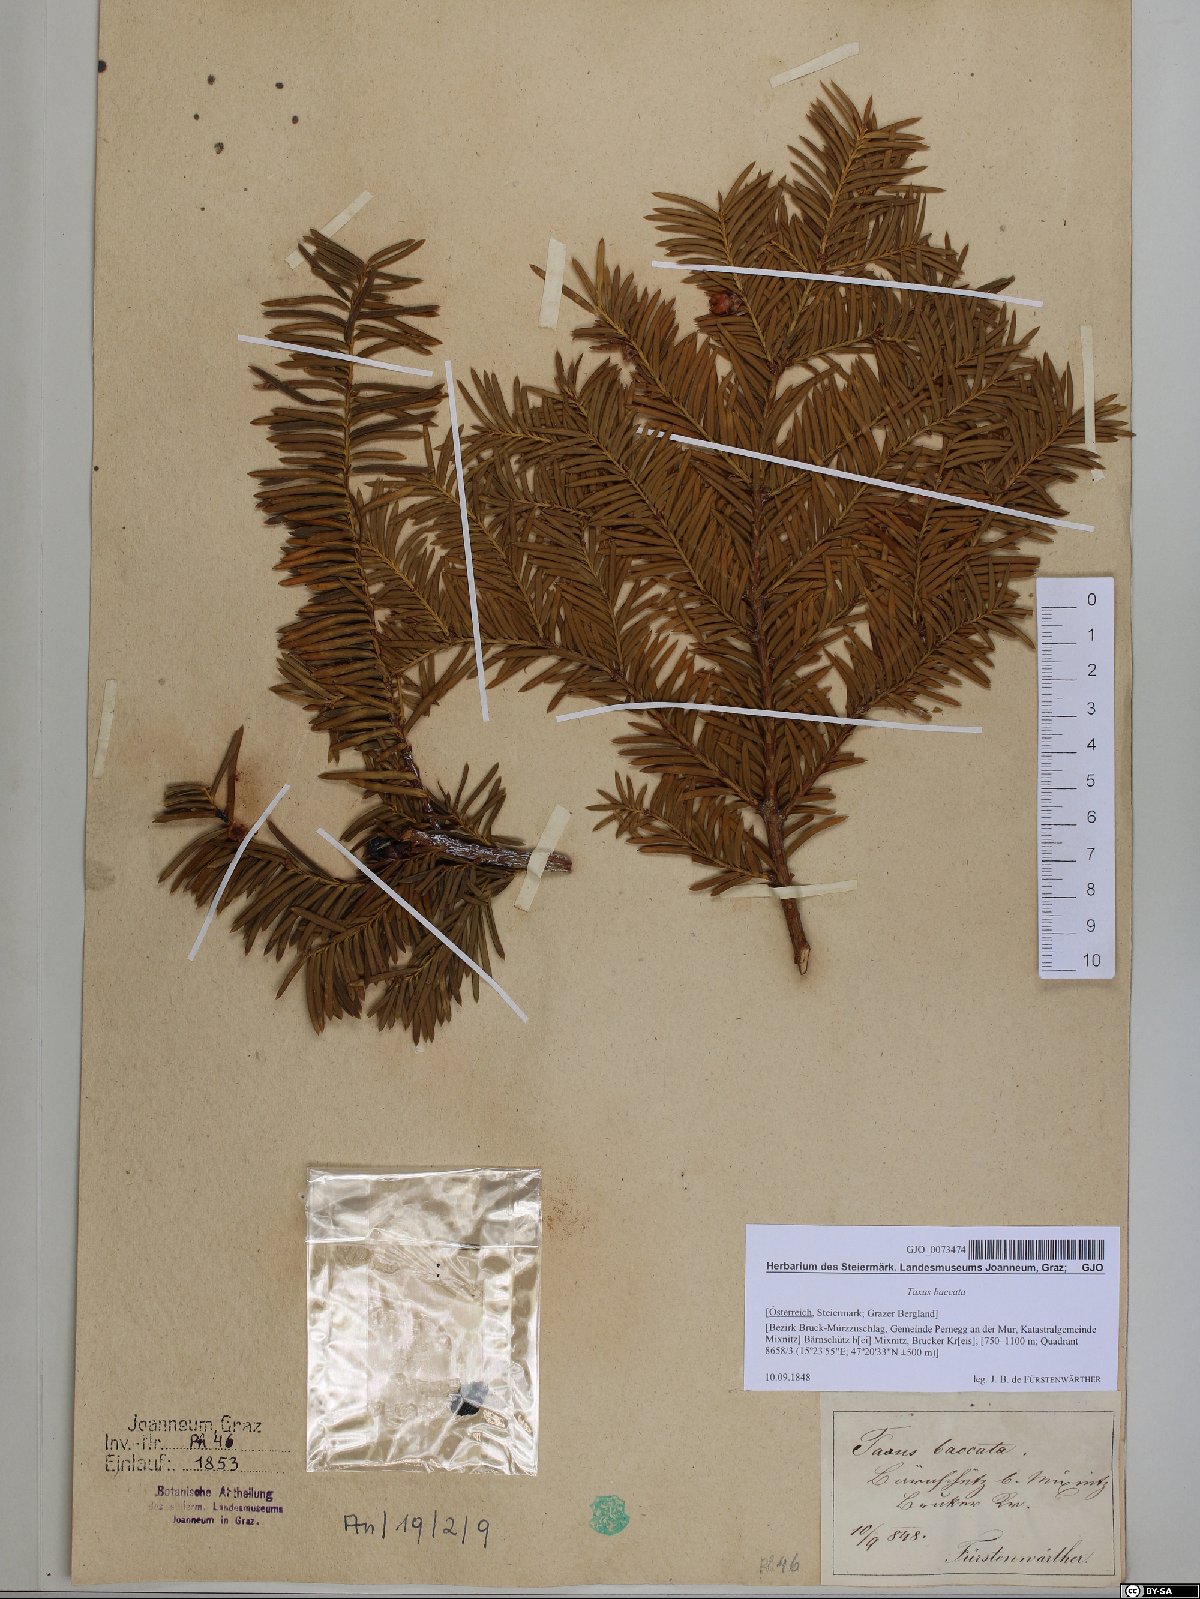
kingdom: Plantae
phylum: Tracheophyta
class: Pinopsida
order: Pinales
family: Taxaceae
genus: Taxus
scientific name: Taxus baccata
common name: Yew
